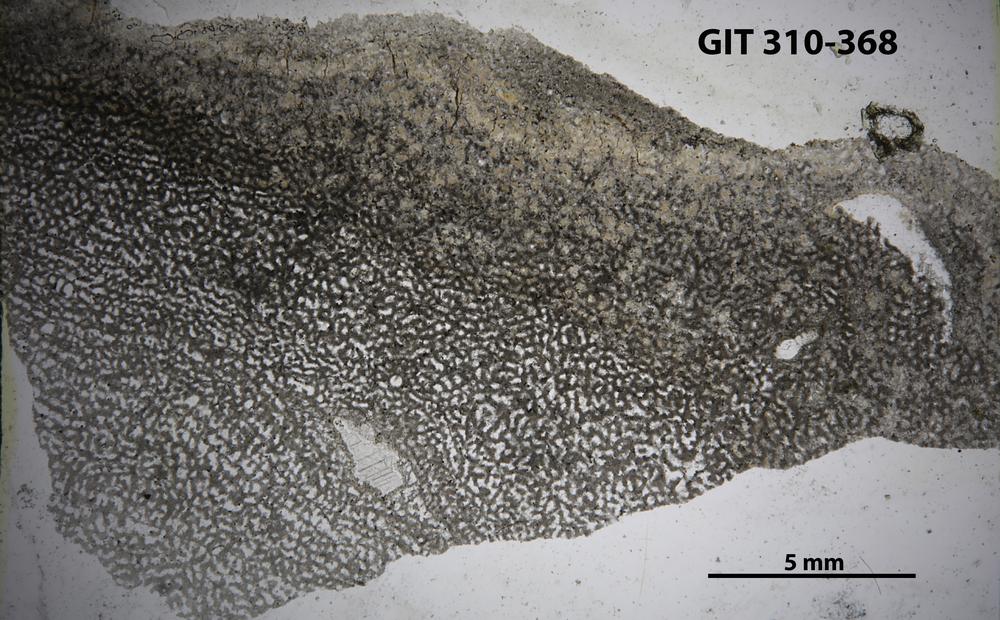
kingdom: Animalia
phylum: Porifera
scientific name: Porifera
